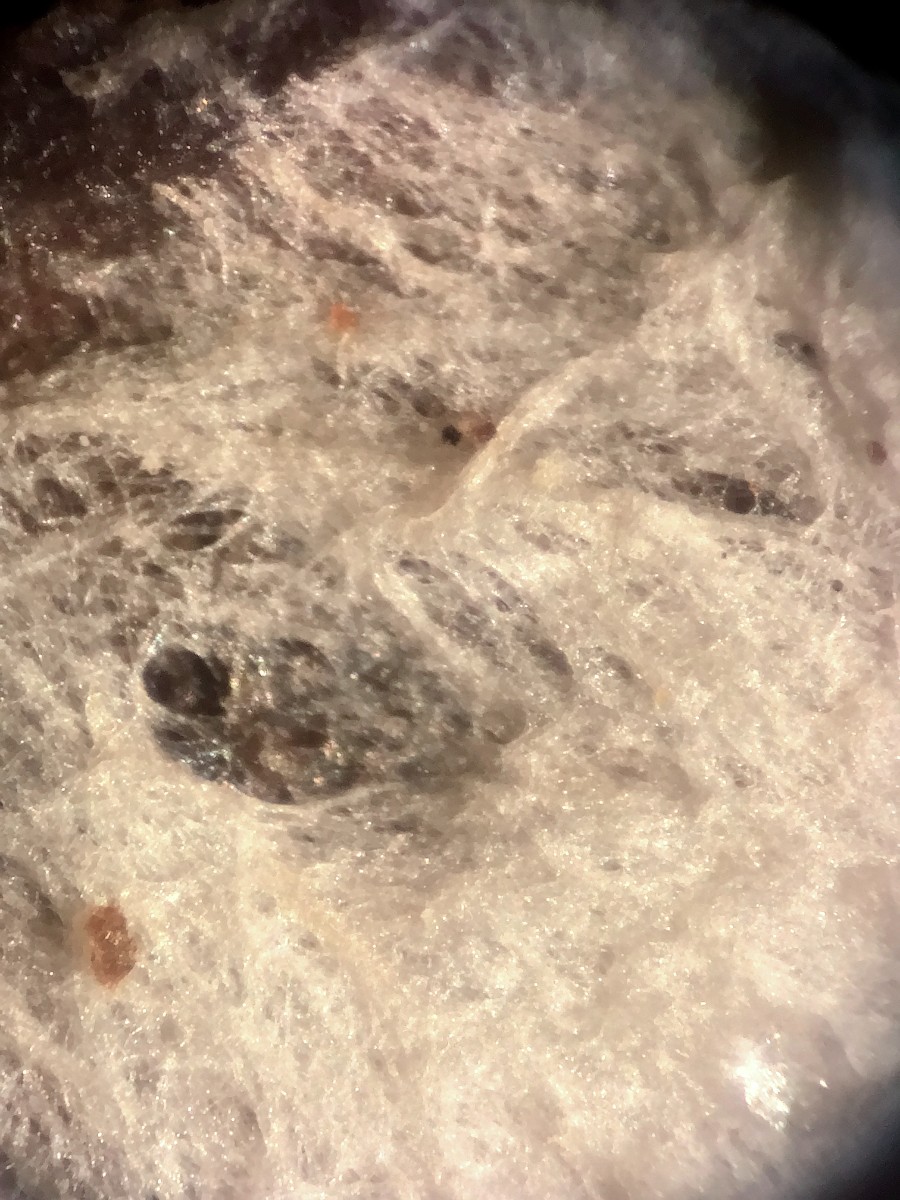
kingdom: Fungi
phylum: Basidiomycota
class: Agaricomycetes
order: Polyporales
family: Phanerochaetaceae
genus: Phanerochaete
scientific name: Phanerochaete
